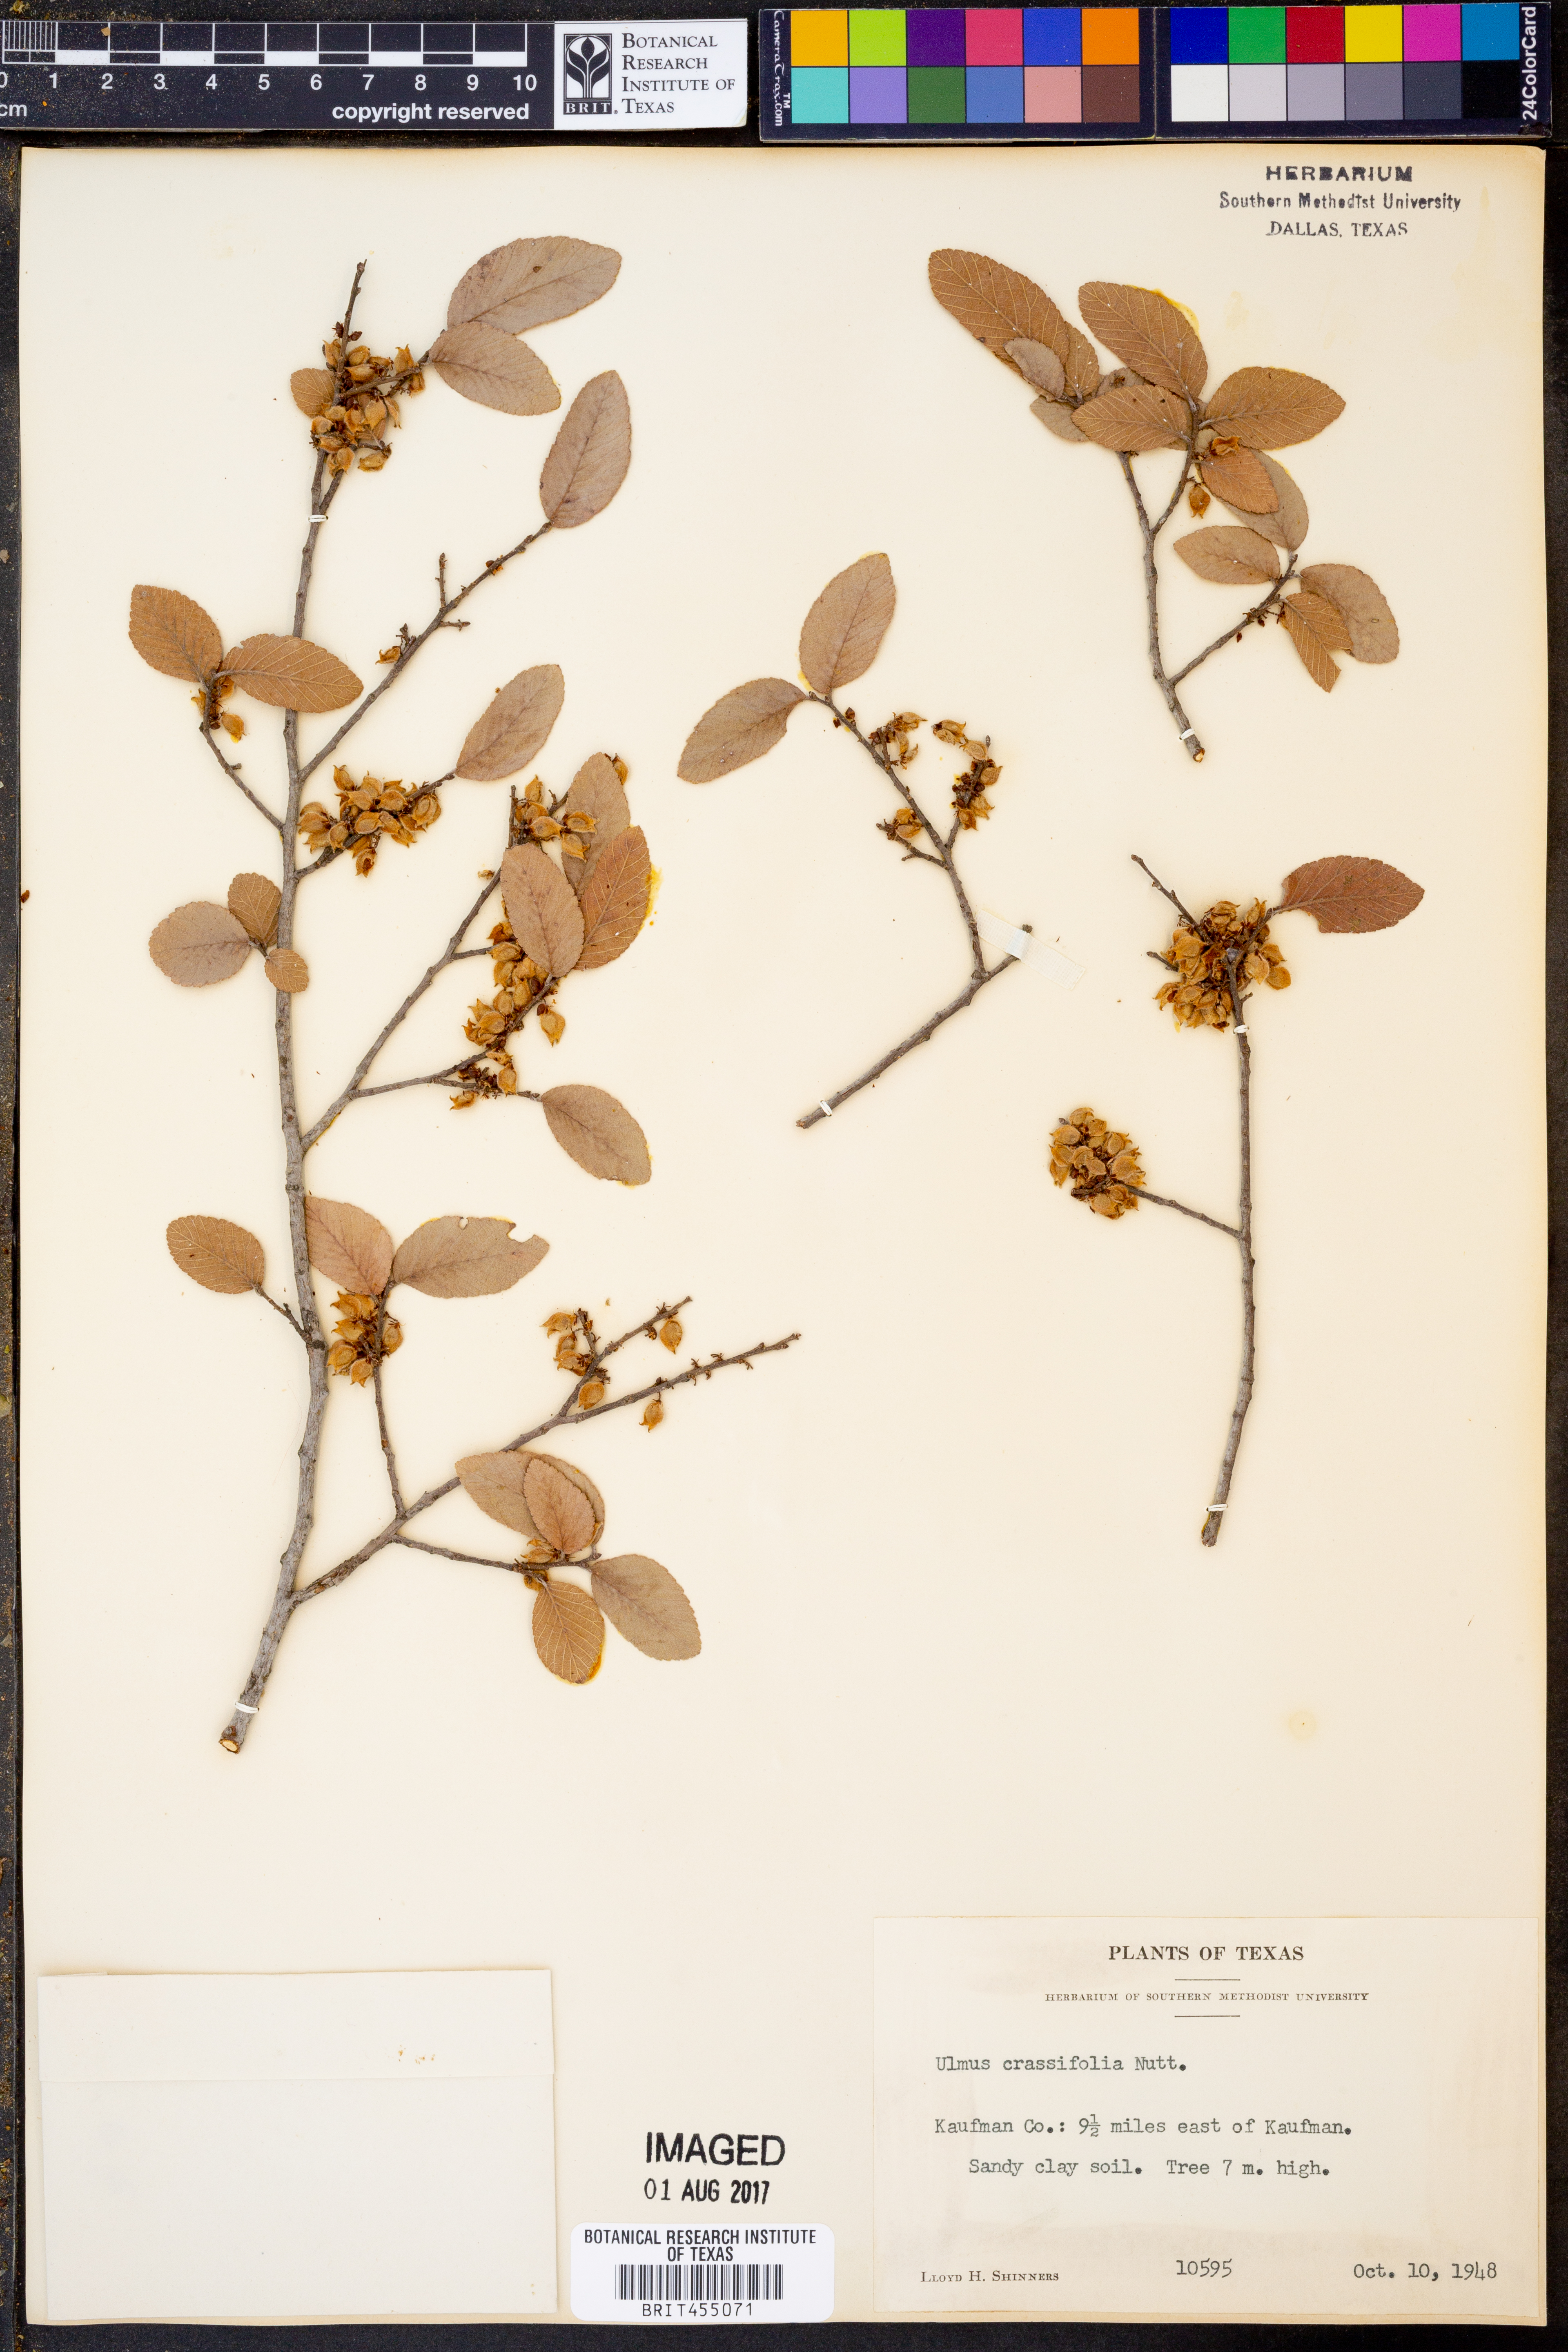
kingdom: Plantae
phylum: Tracheophyta
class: Magnoliopsida
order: Rosales
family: Ulmaceae
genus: Ulmus
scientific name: Ulmus crassifolia
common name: Basket elm
